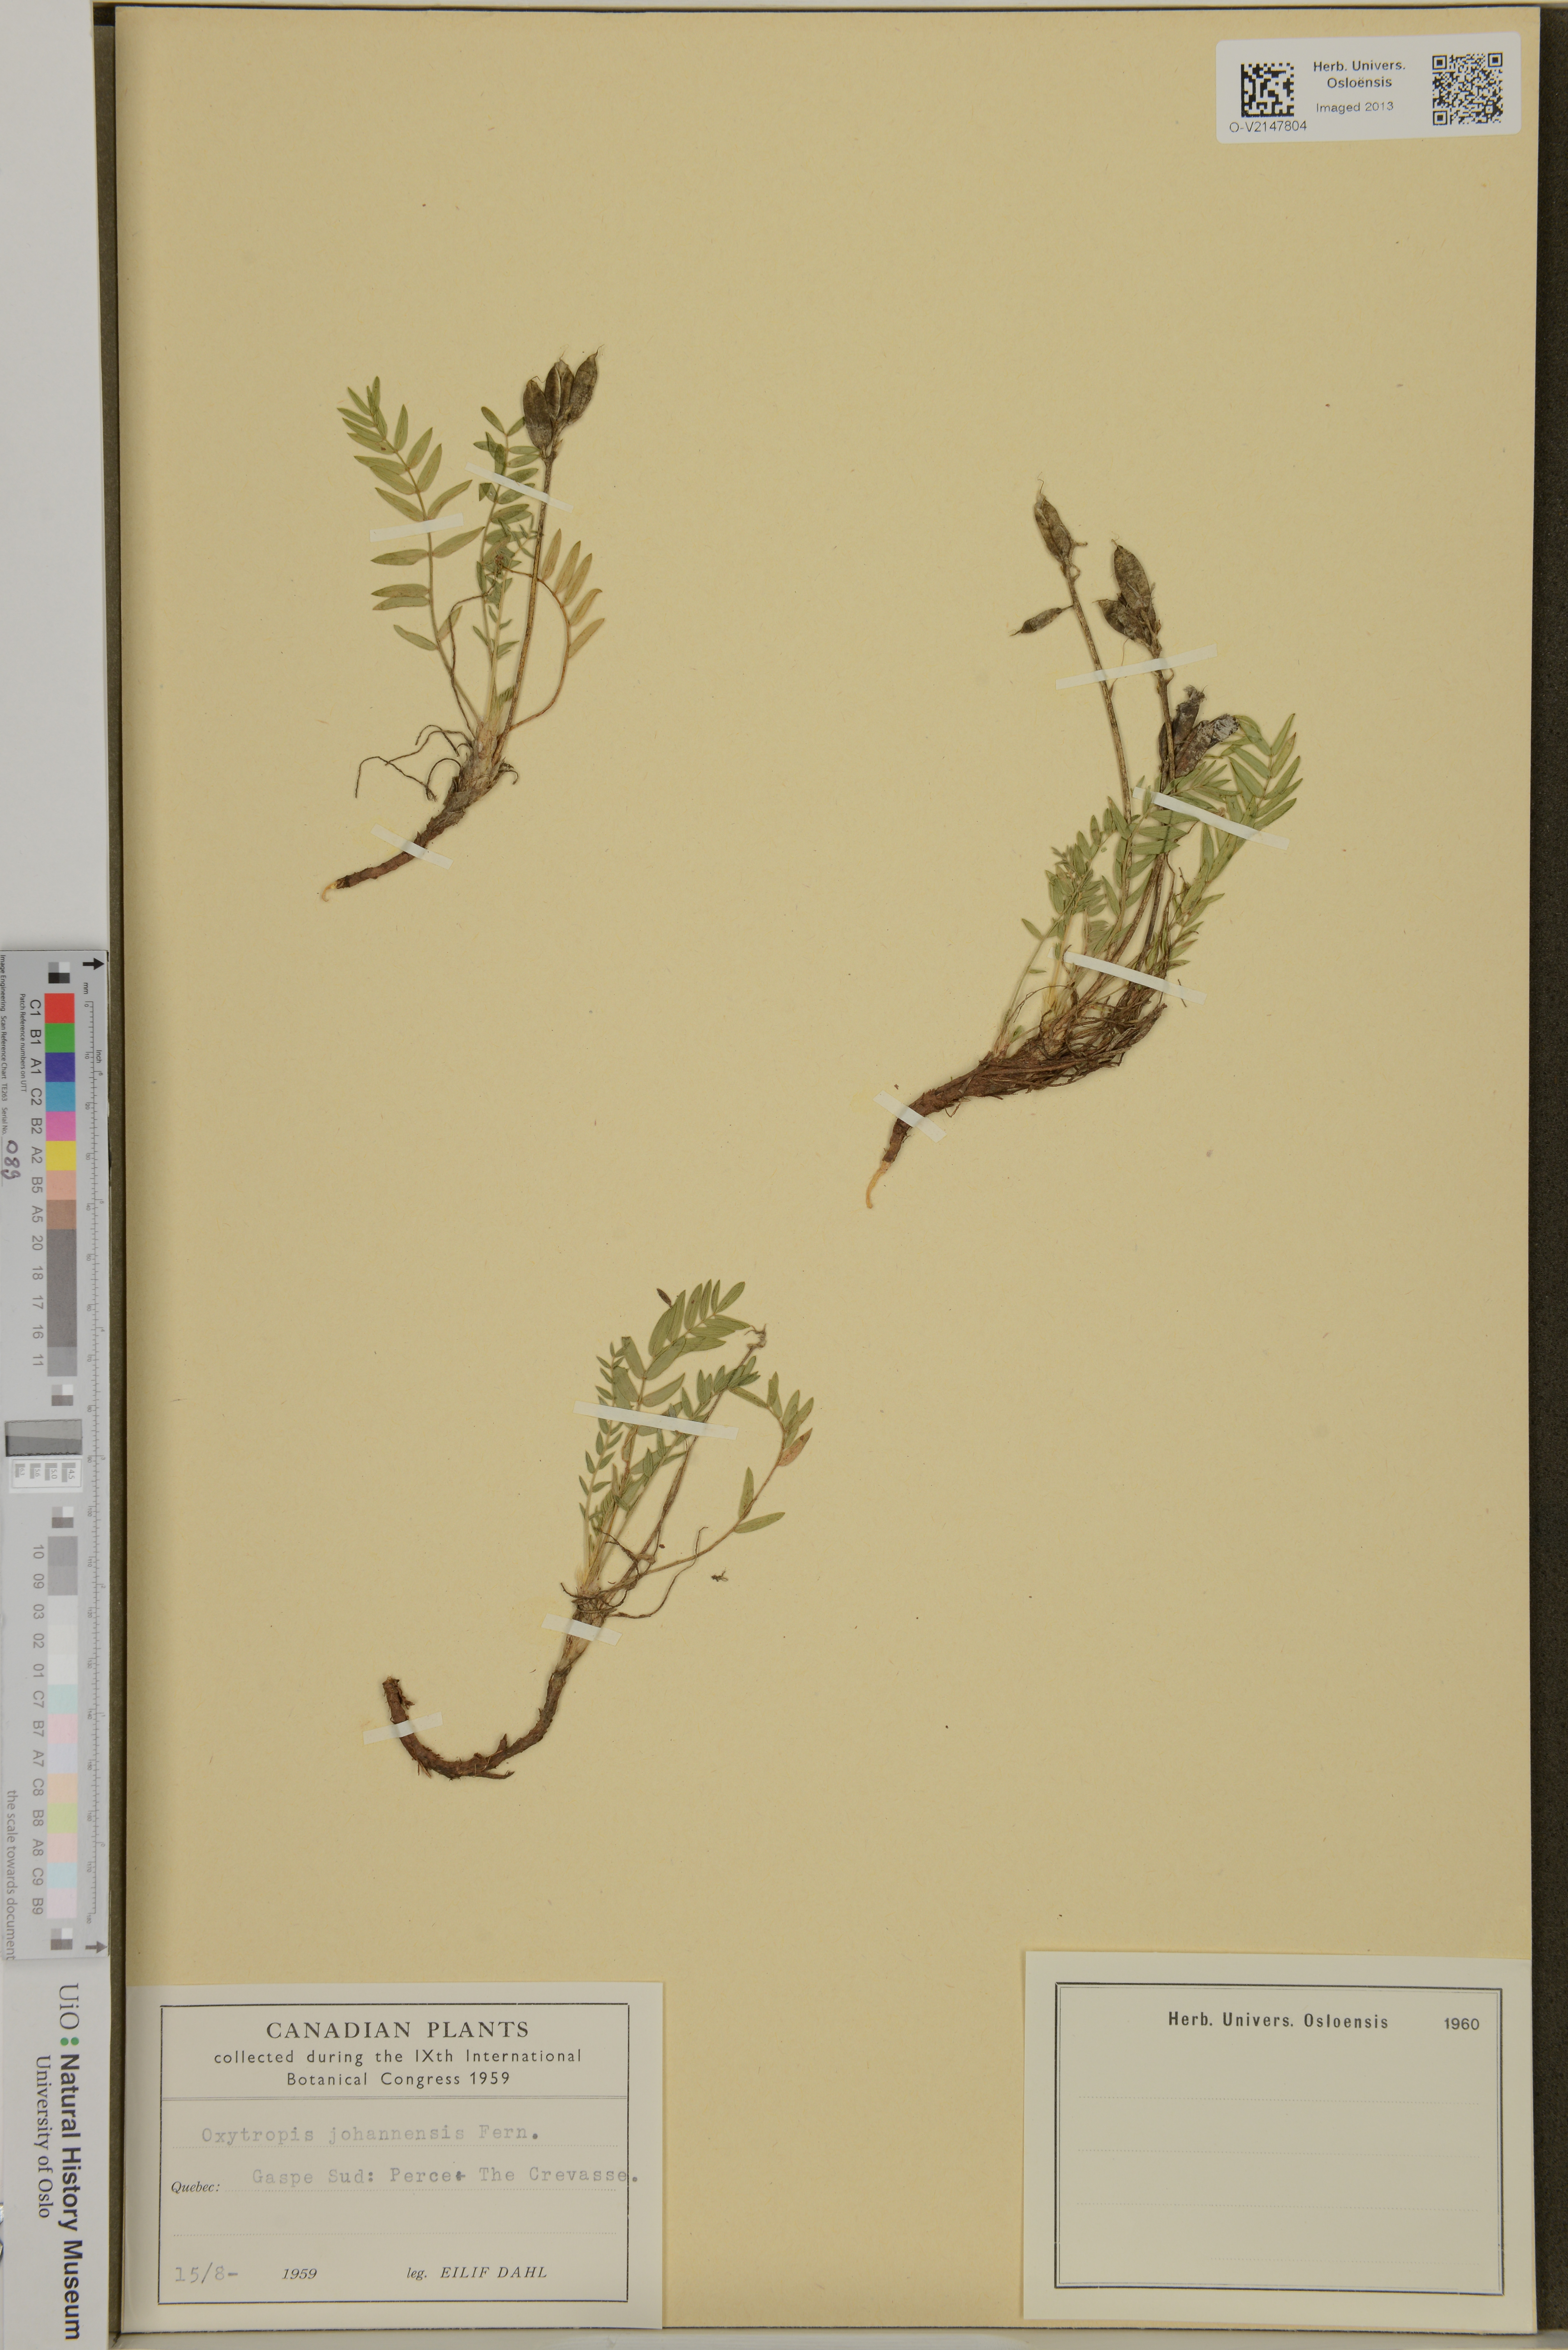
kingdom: Plantae
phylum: Tracheophyta
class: Magnoliopsida
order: Fabales
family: Fabaceae
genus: Oxytropis
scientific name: Oxytropis campestris
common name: Field locoweed
